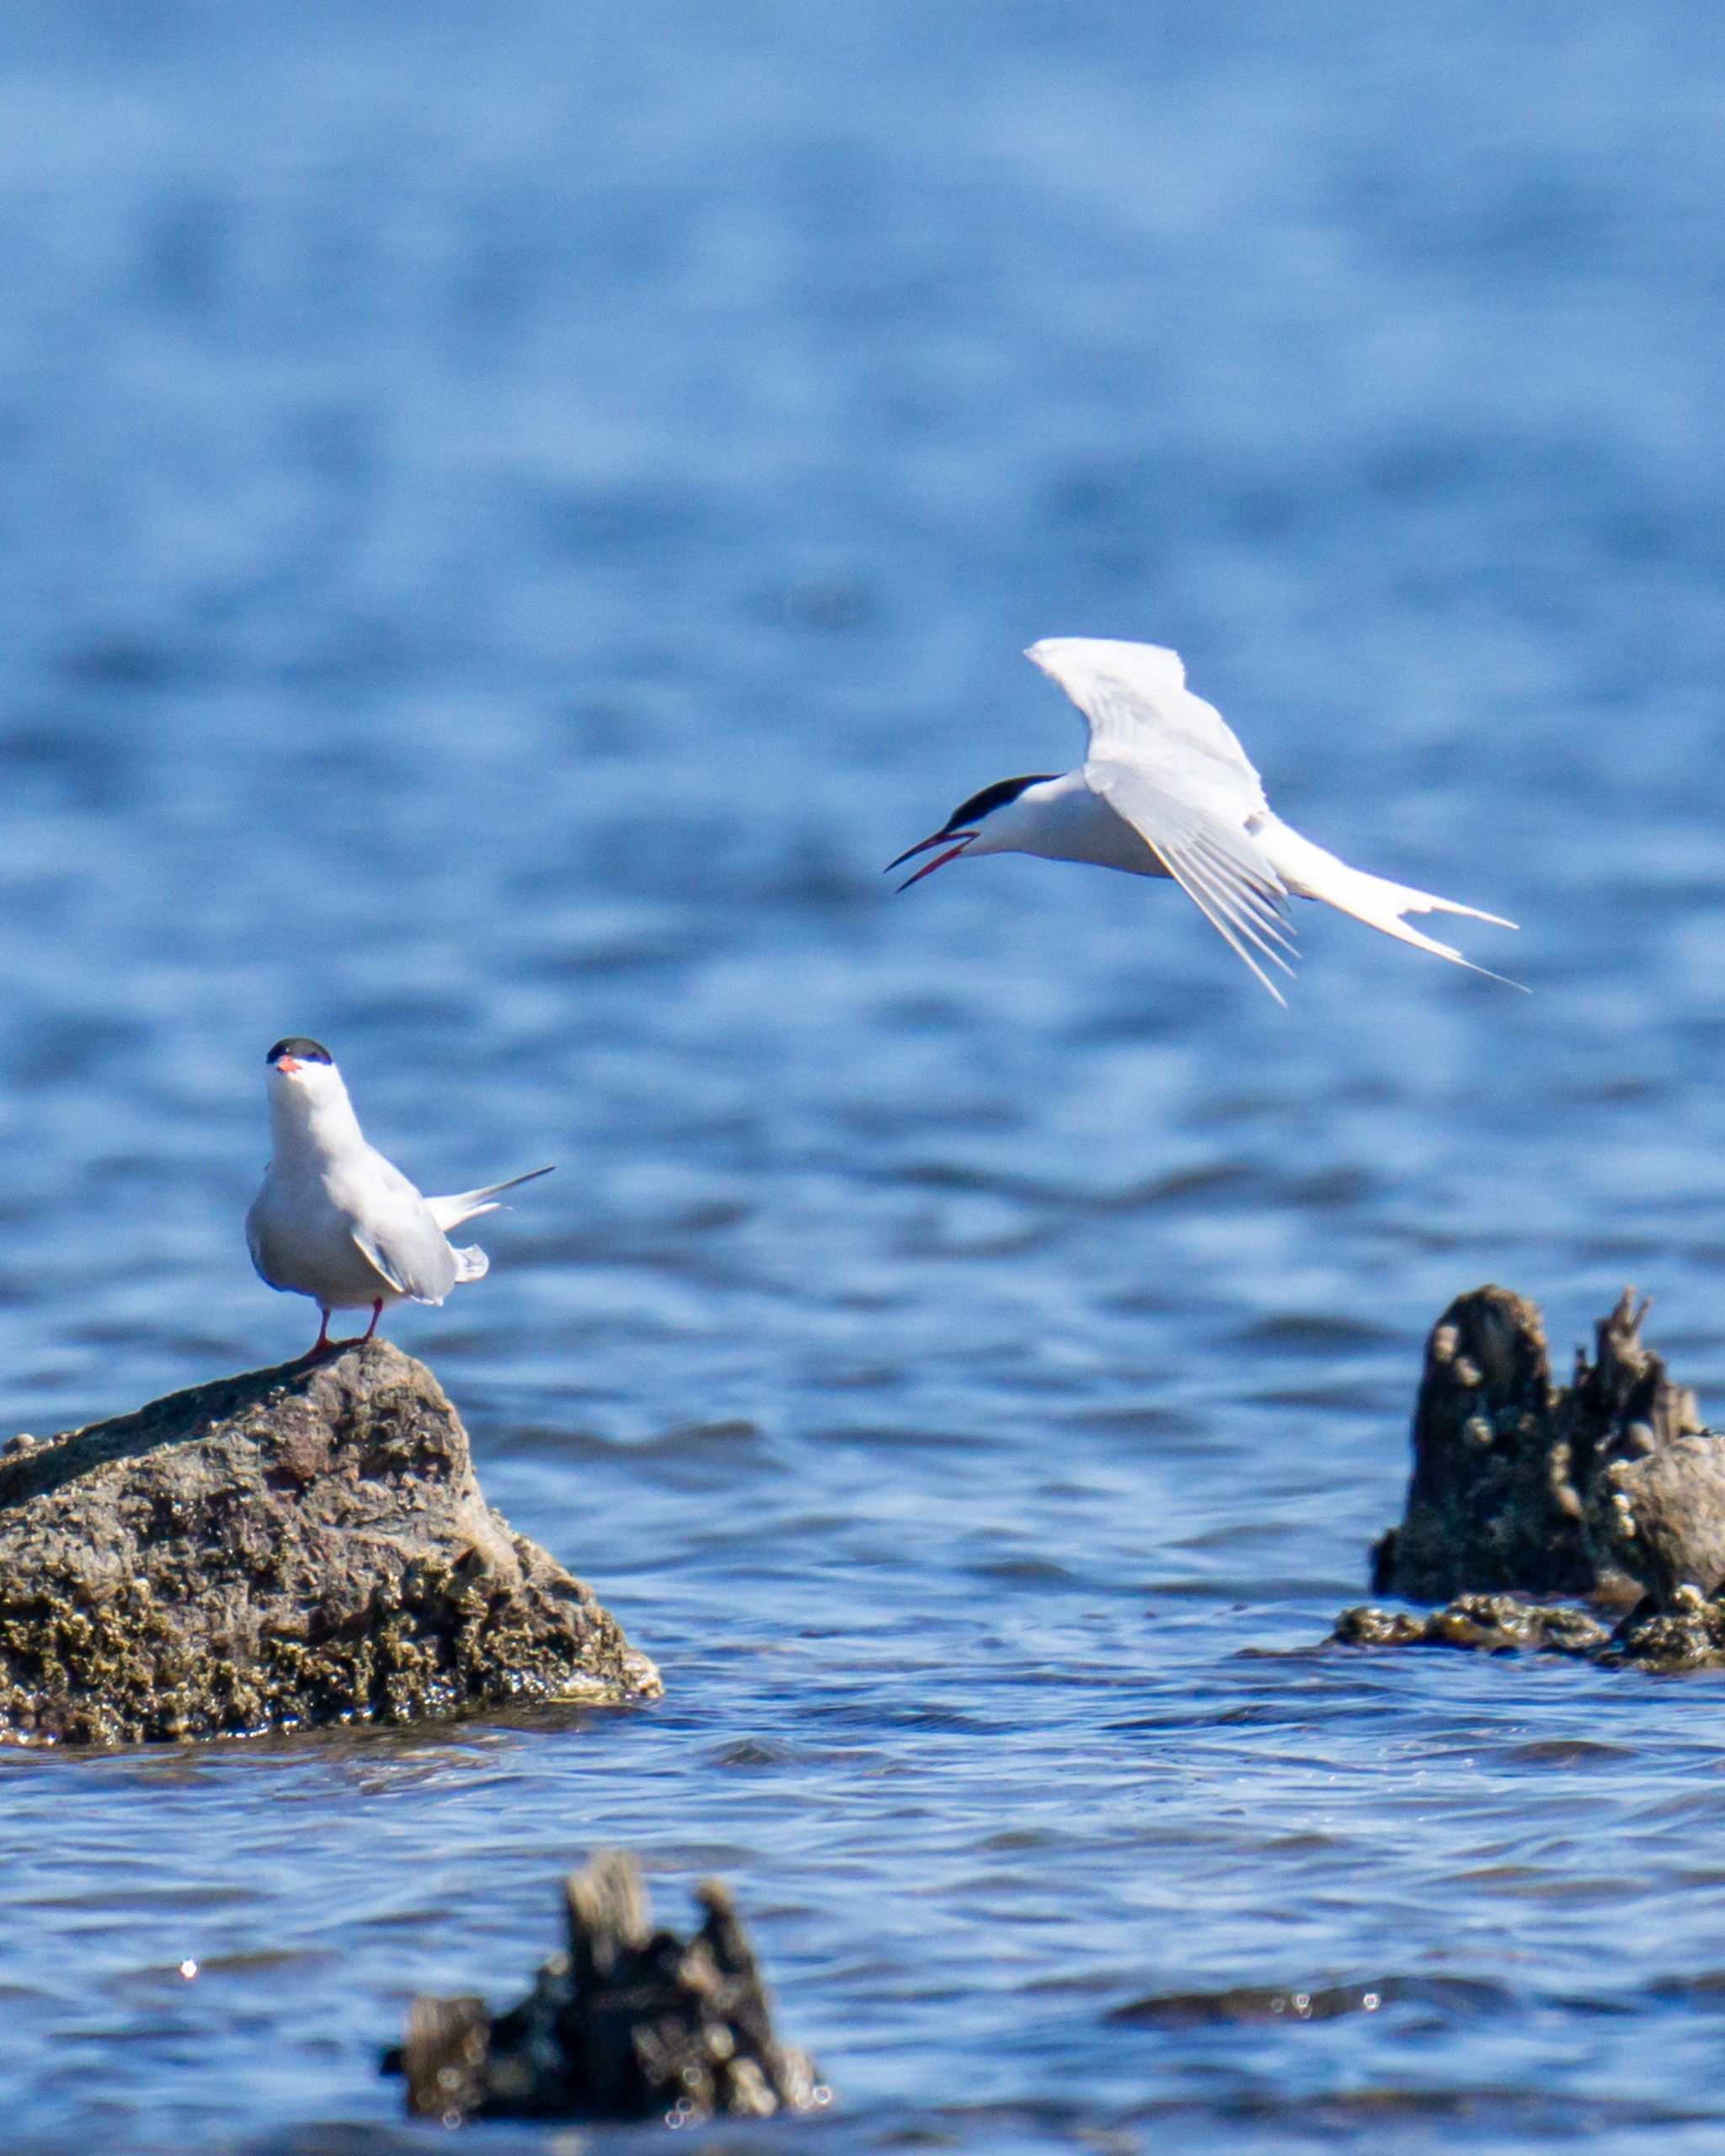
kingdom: Animalia
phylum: Chordata
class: Aves
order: Charadriiformes
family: Laridae
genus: Sterna
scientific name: Sterna hirundo
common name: Fjordterne
